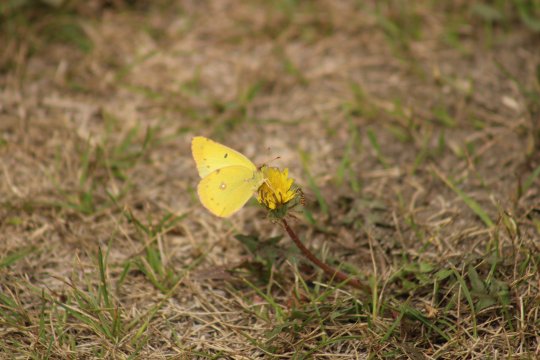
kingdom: Animalia
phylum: Arthropoda
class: Insecta
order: Lepidoptera
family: Pieridae
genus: Colias
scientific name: Colias philodice
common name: Clouded Sulphur
